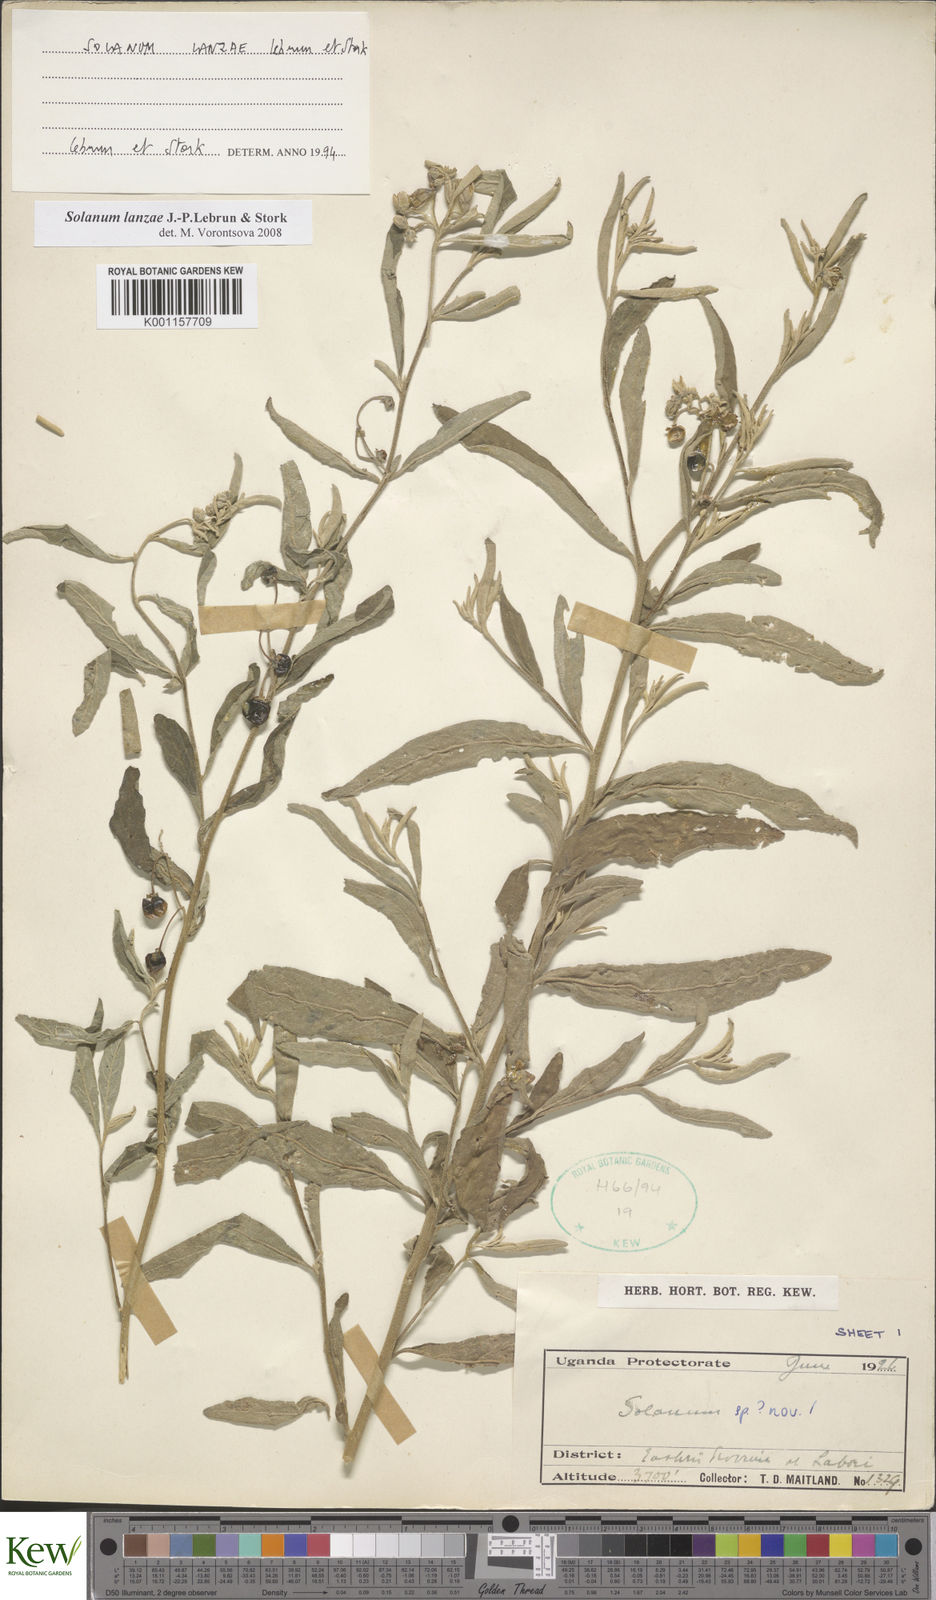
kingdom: Plantae
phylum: Tracheophyta
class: Magnoliopsida
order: Solanales
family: Solanaceae
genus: Solanum
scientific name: Solanum lanzae
